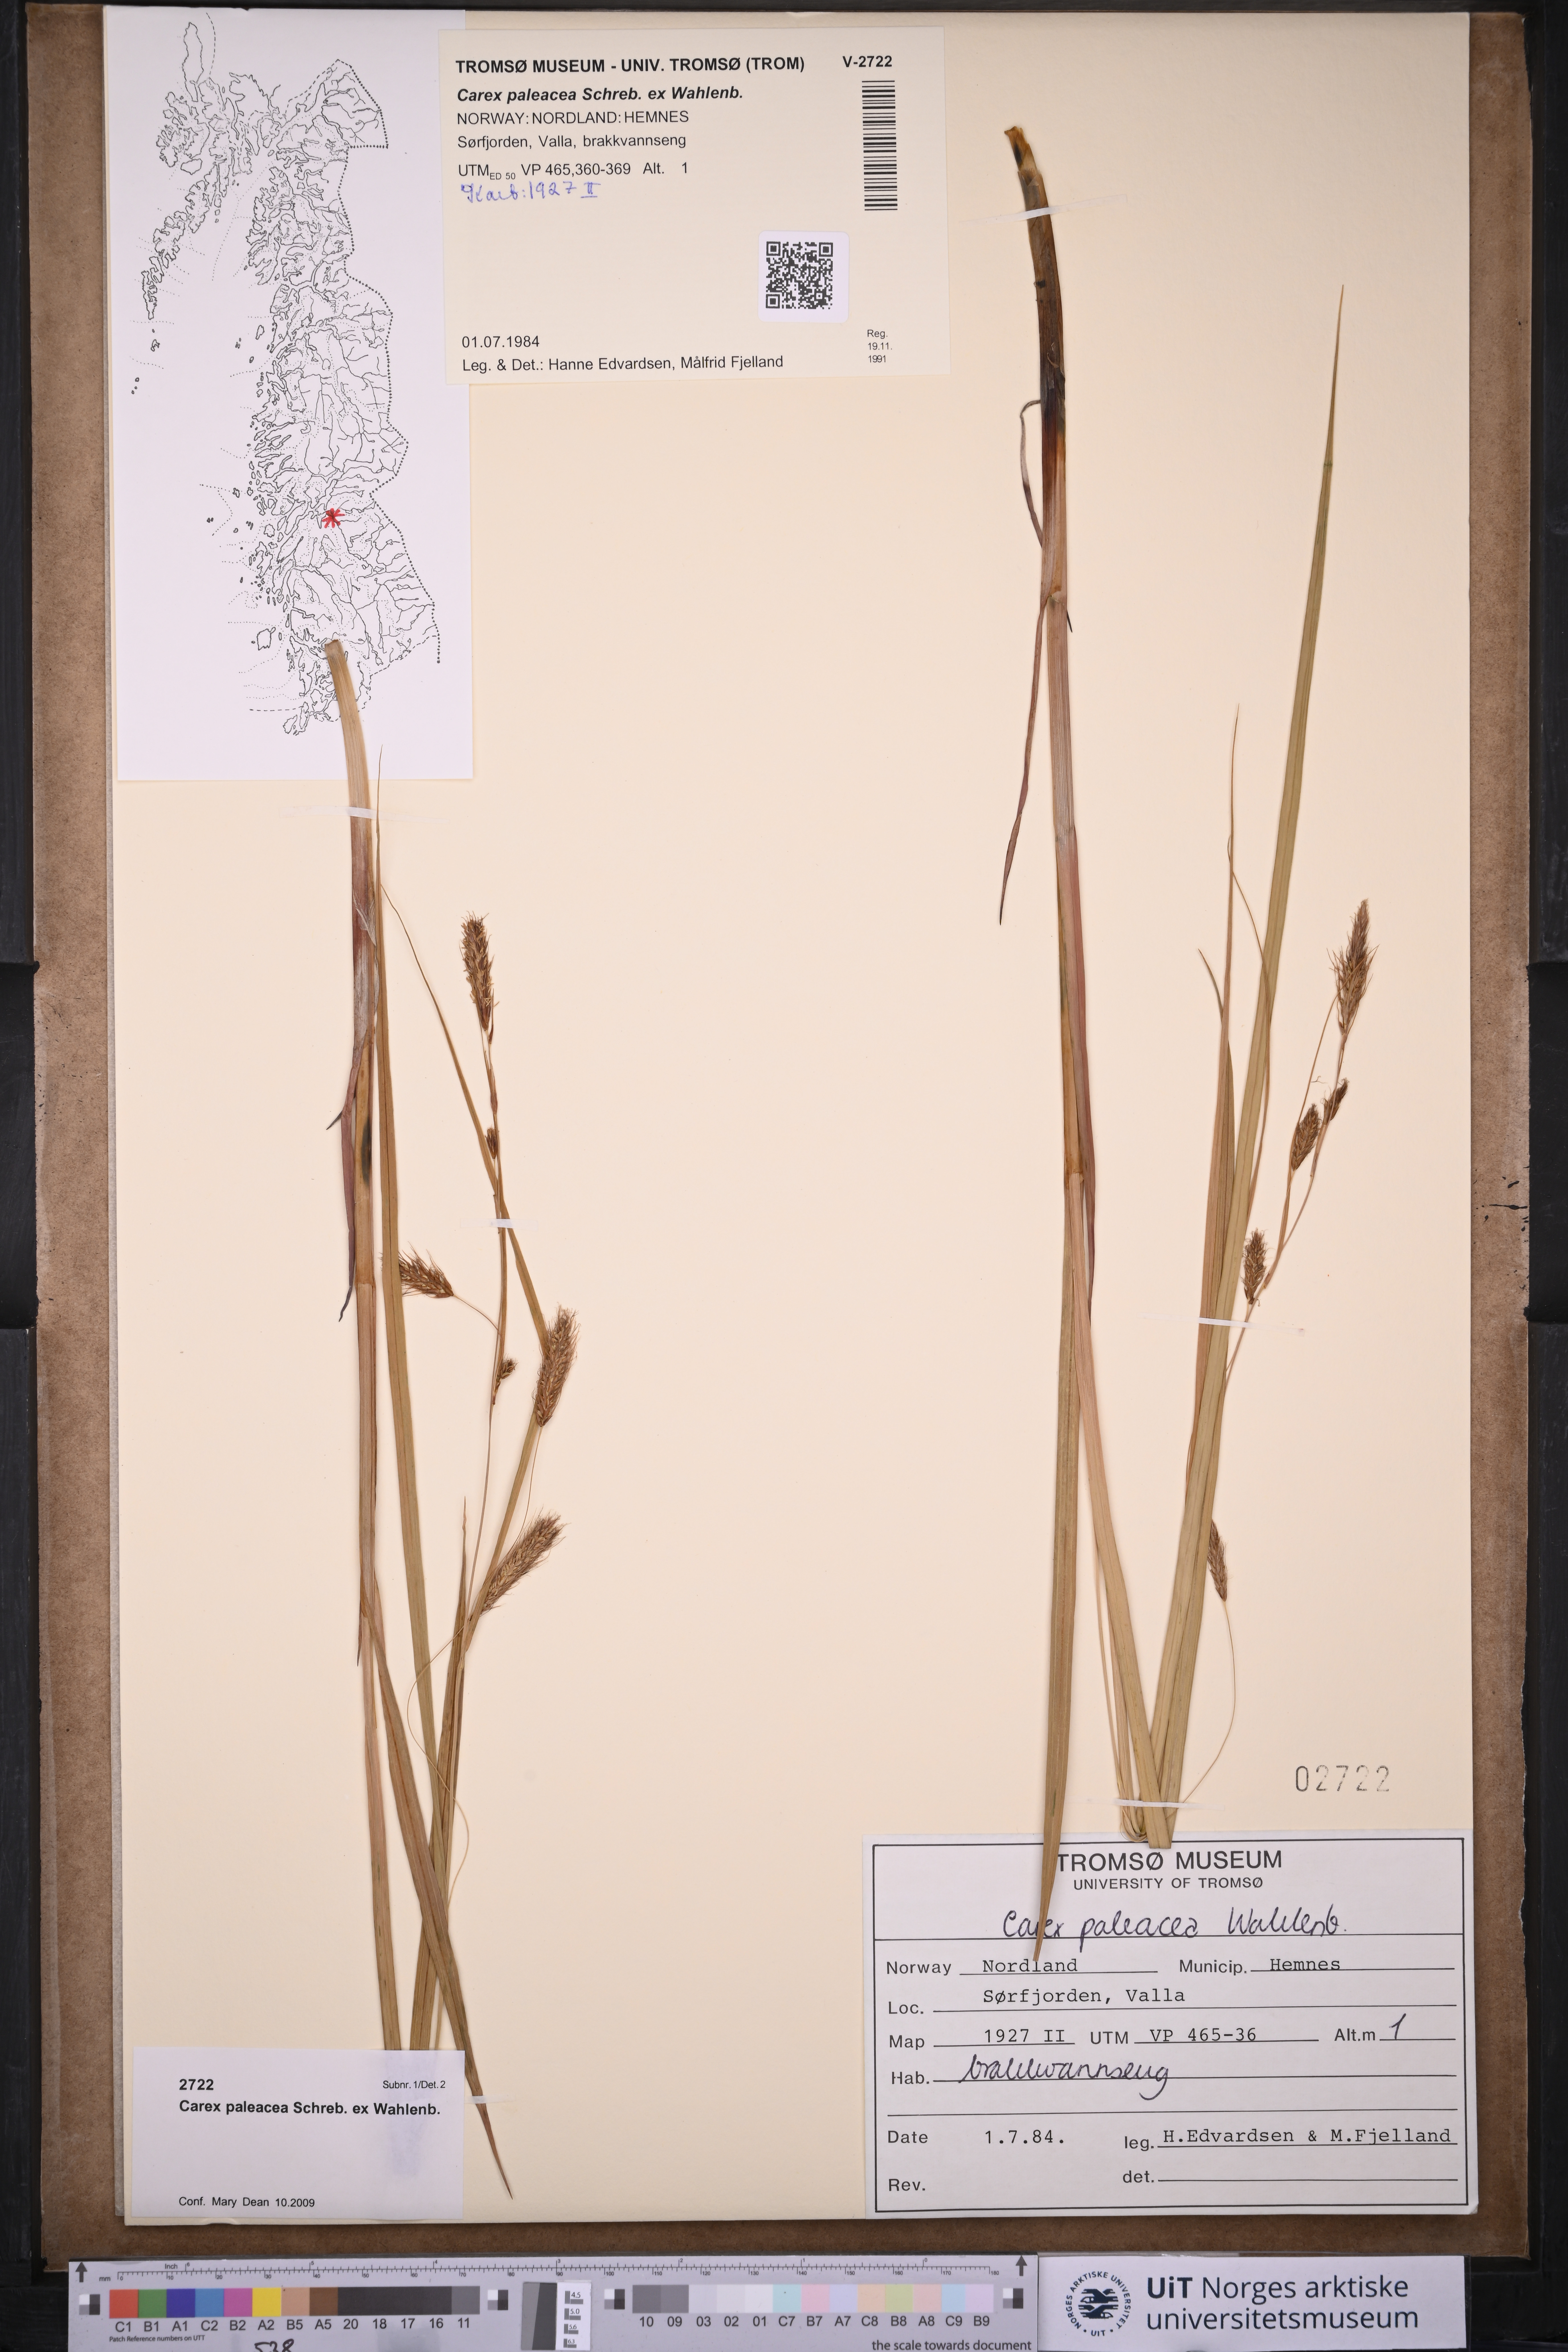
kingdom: Plantae
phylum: Tracheophyta
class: Liliopsida
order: Poales
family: Cyperaceae
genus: Carex
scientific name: Carex paleacea
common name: Chaffy sedge
